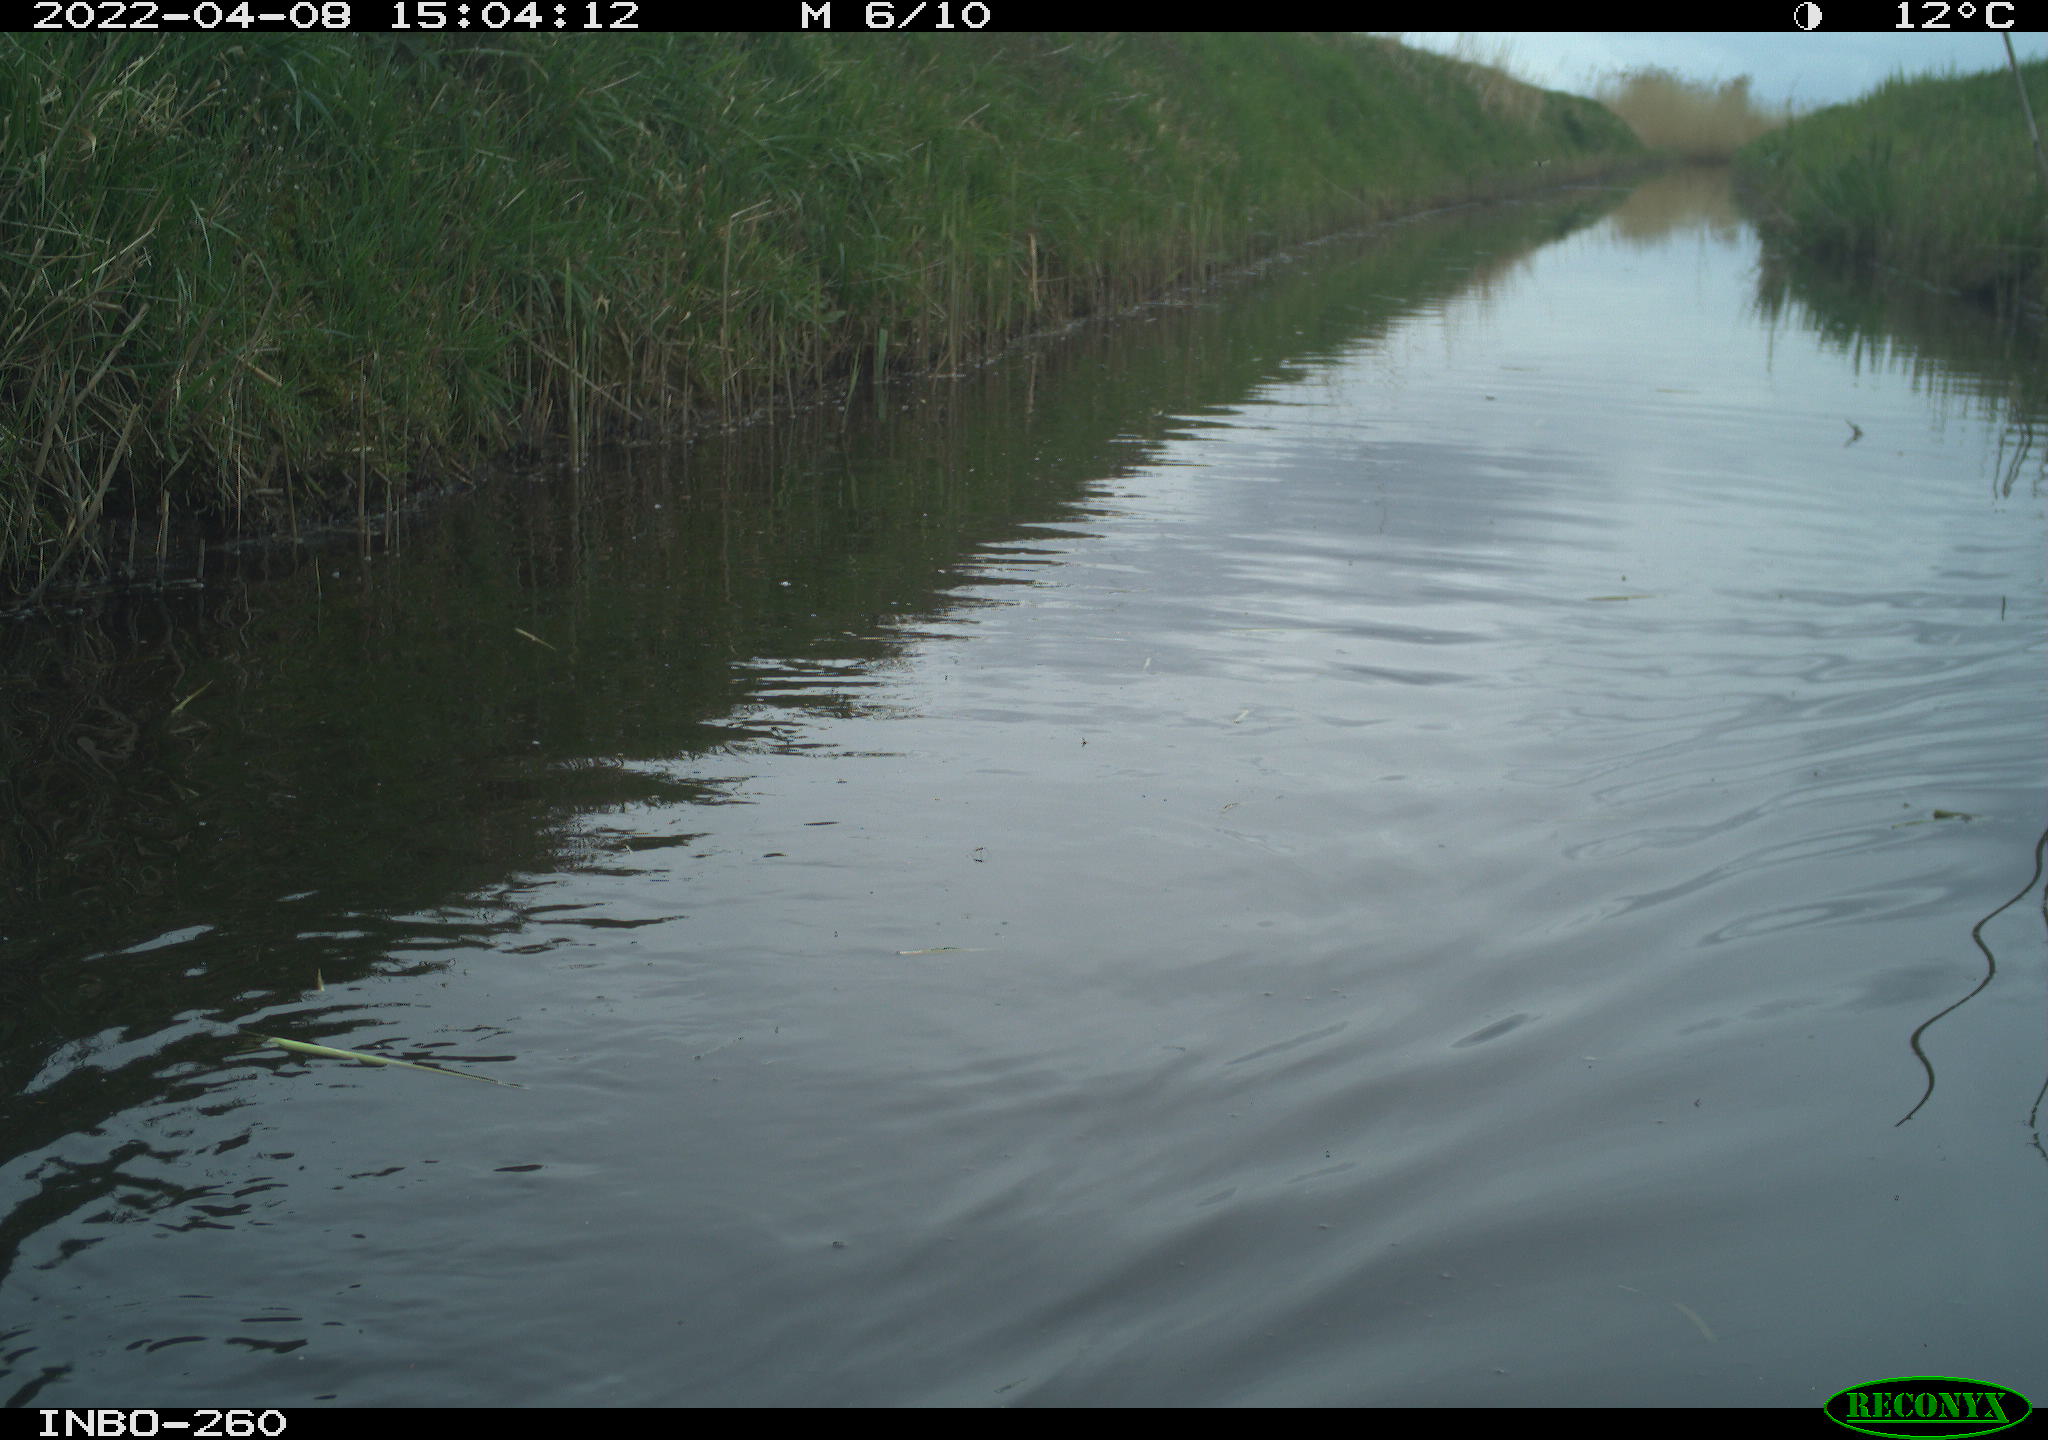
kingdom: Animalia
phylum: Chordata
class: Mammalia
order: Rodentia
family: Castoridae
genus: Castor
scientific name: Castor fiber
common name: Eurasian beaver
